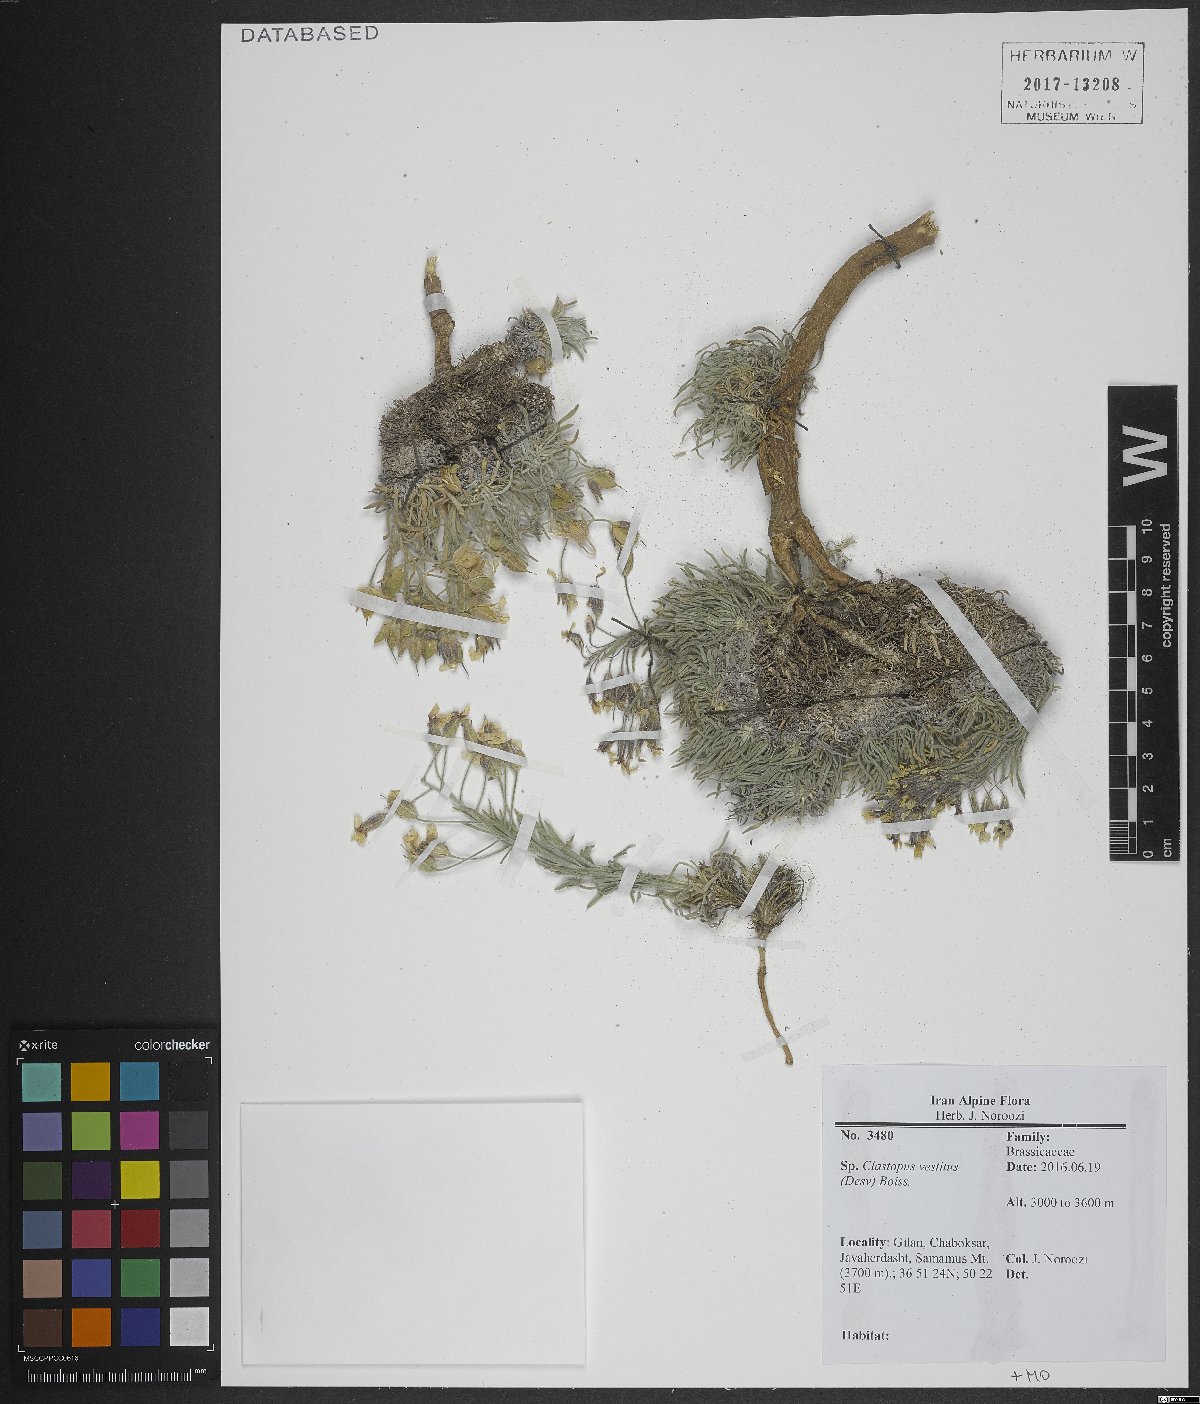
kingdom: Plantae
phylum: Tracheophyta
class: Magnoliopsida
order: Brassicales
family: Brassicaceae
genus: Clastopus
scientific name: Clastopus vestitus
